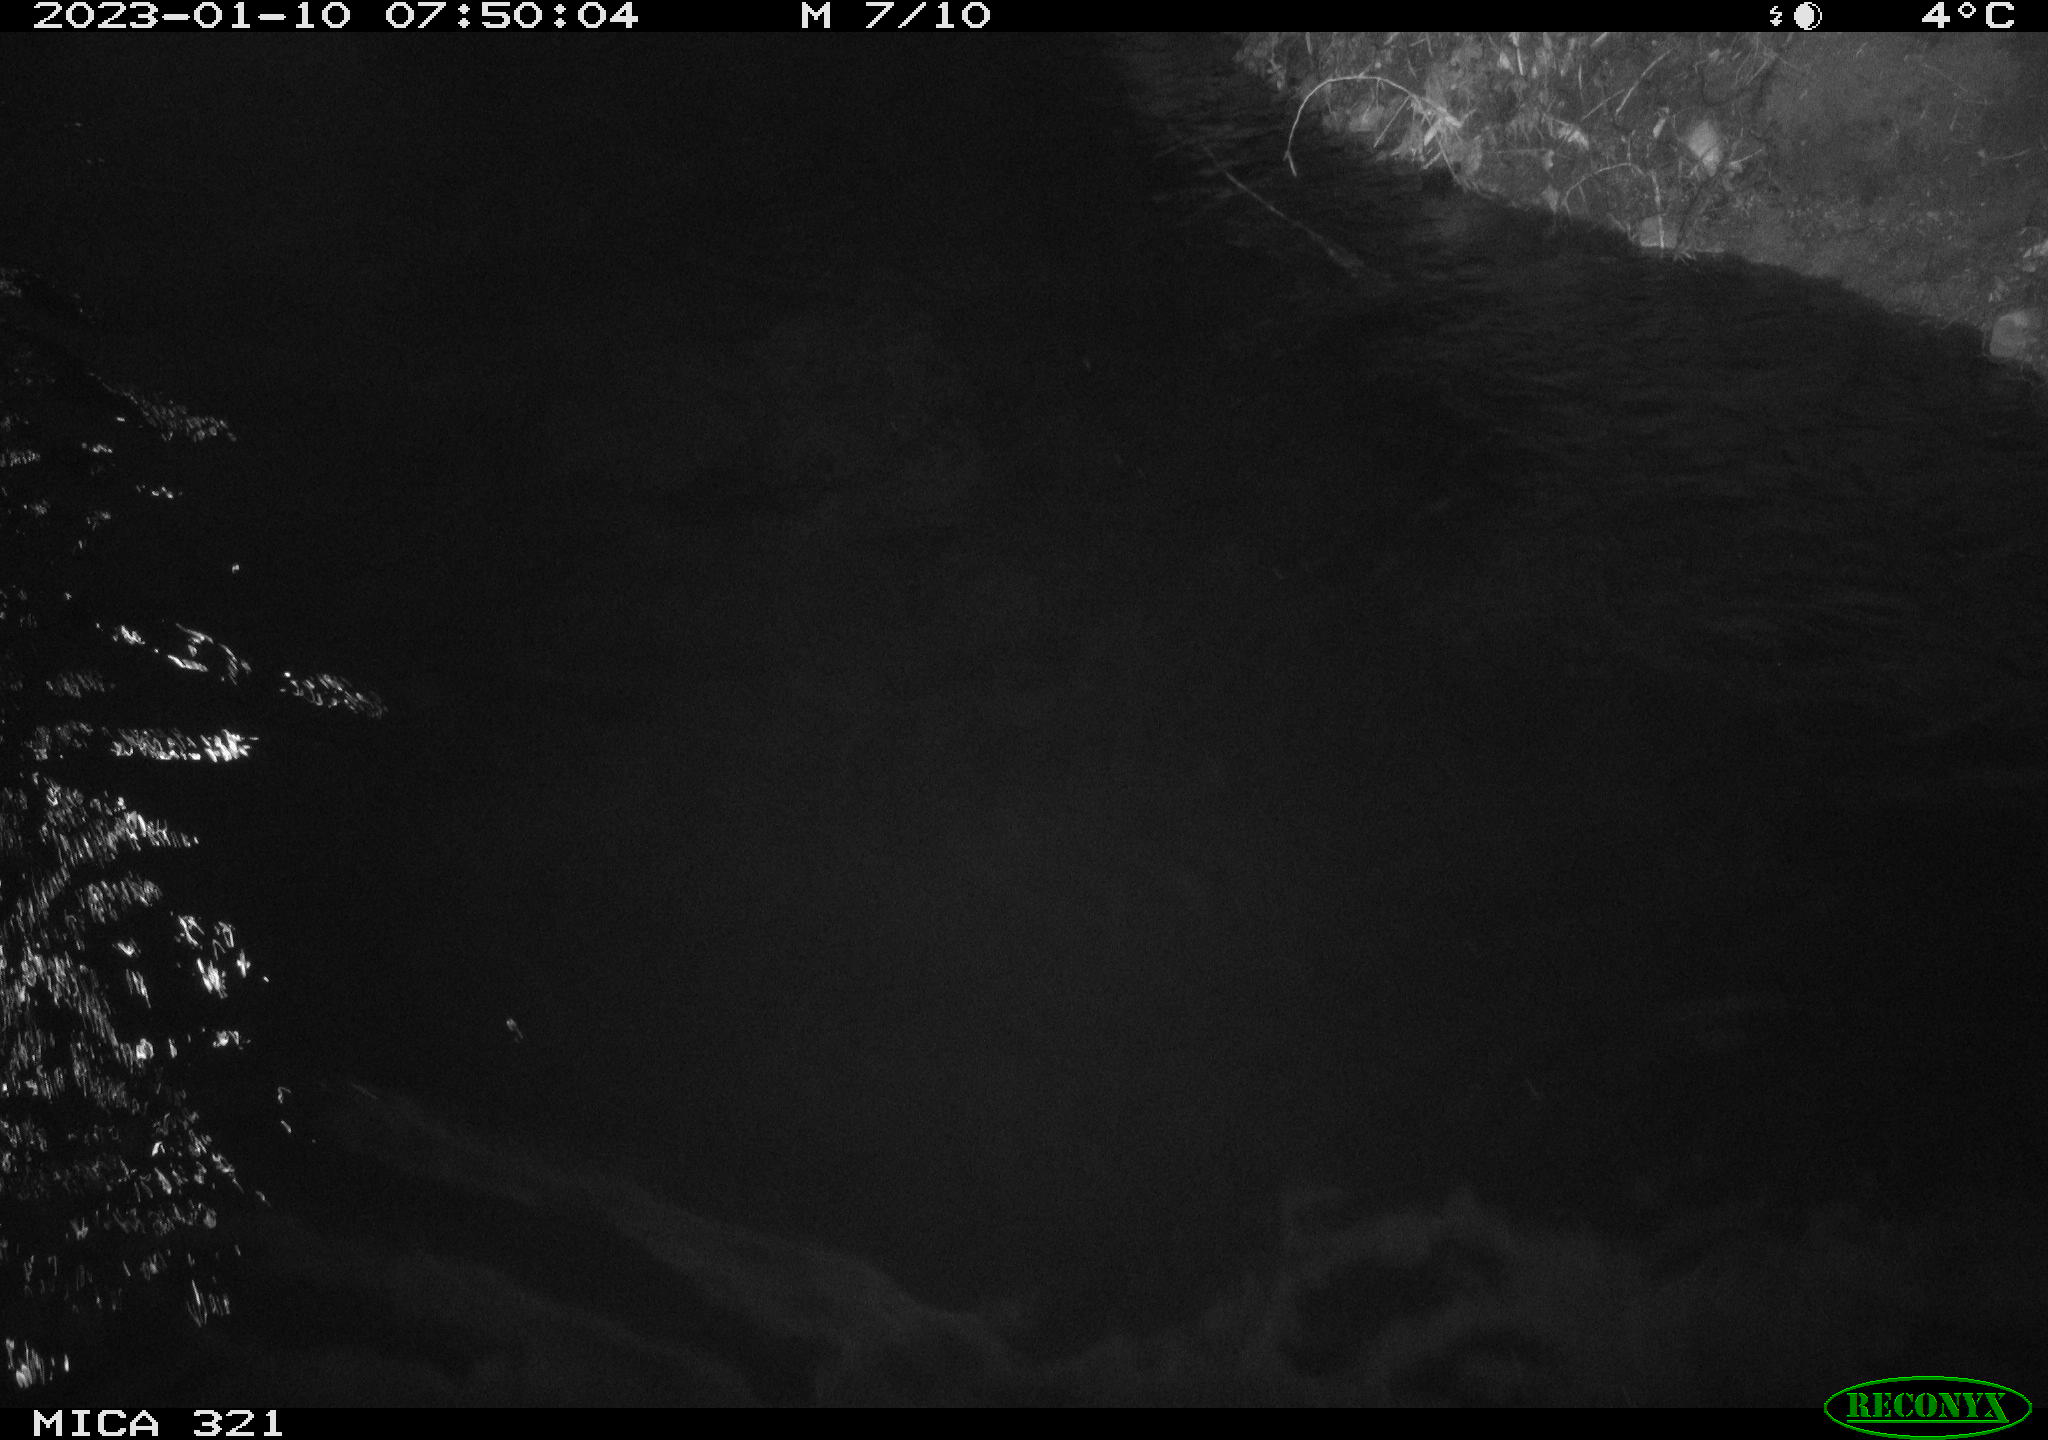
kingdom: Animalia
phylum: Chordata
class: Aves
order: Anseriformes
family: Anatidae
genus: Anas
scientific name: Anas
